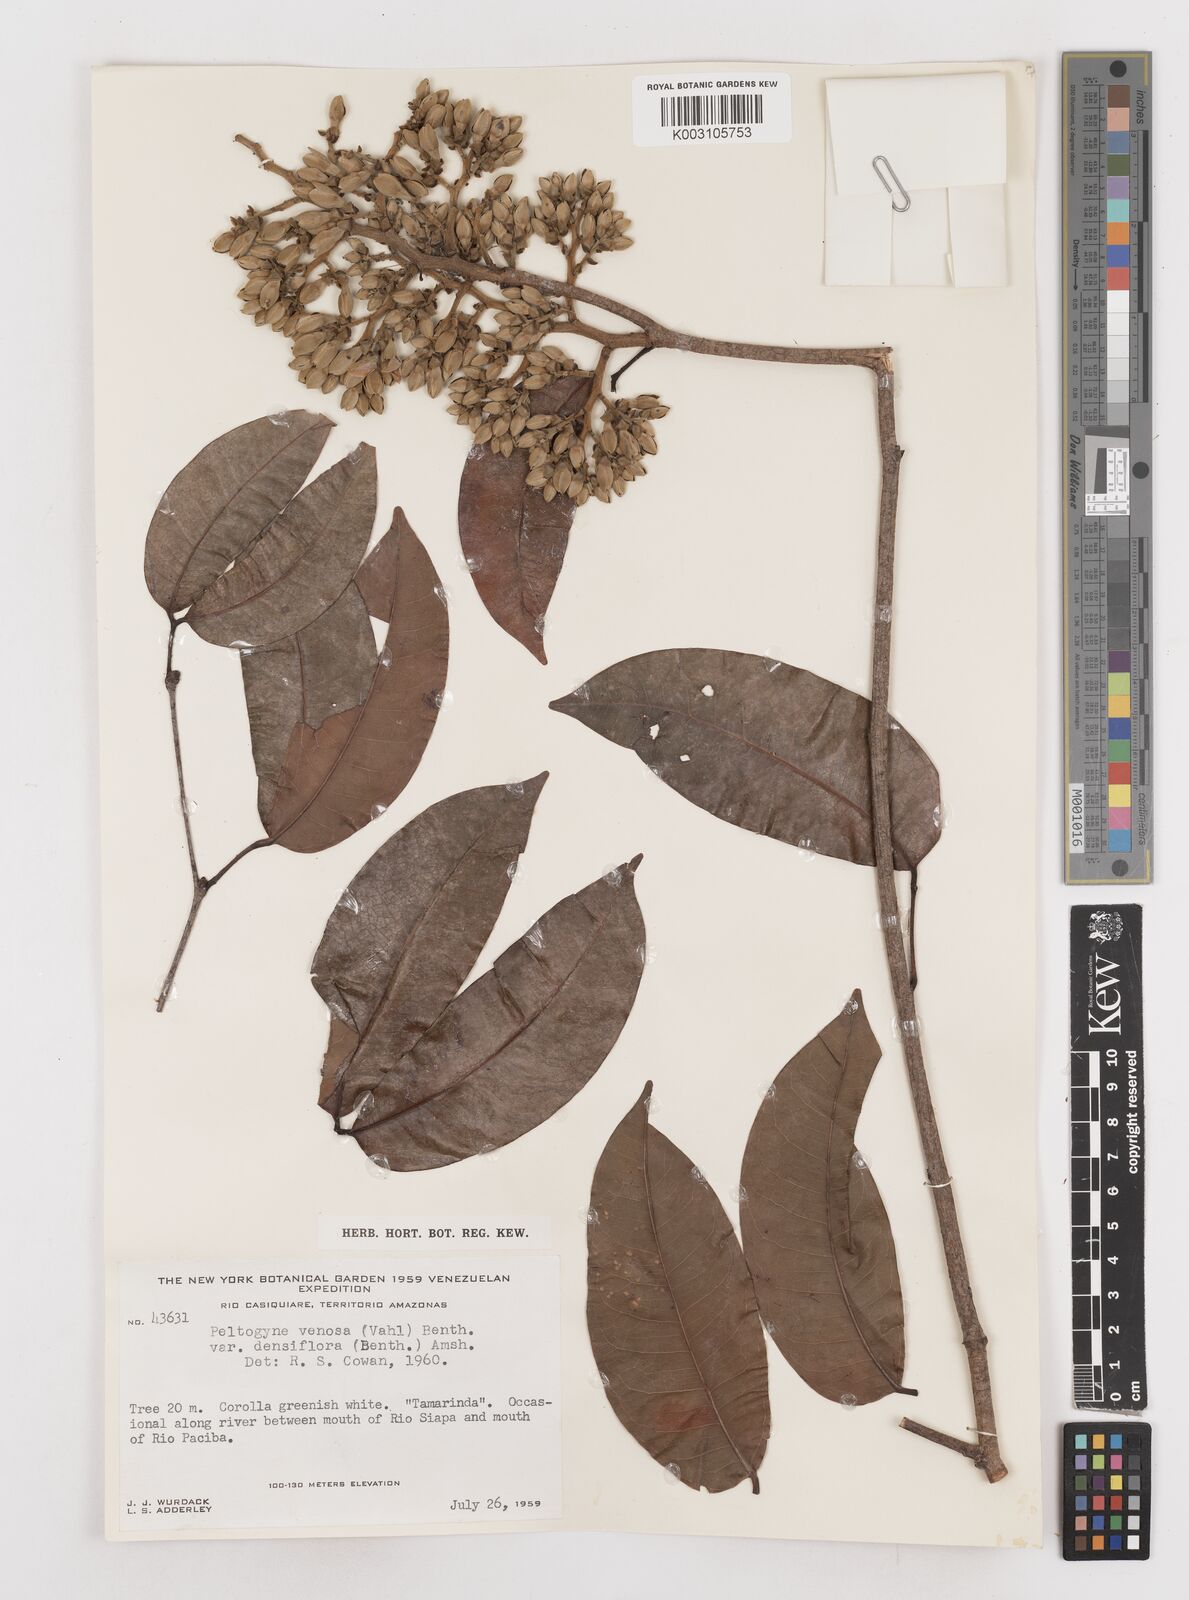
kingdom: Plantae
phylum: Tracheophyta
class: Magnoliopsida
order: Fabales
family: Fabaceae
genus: Peltogyne
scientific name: Peltogyne venosa
